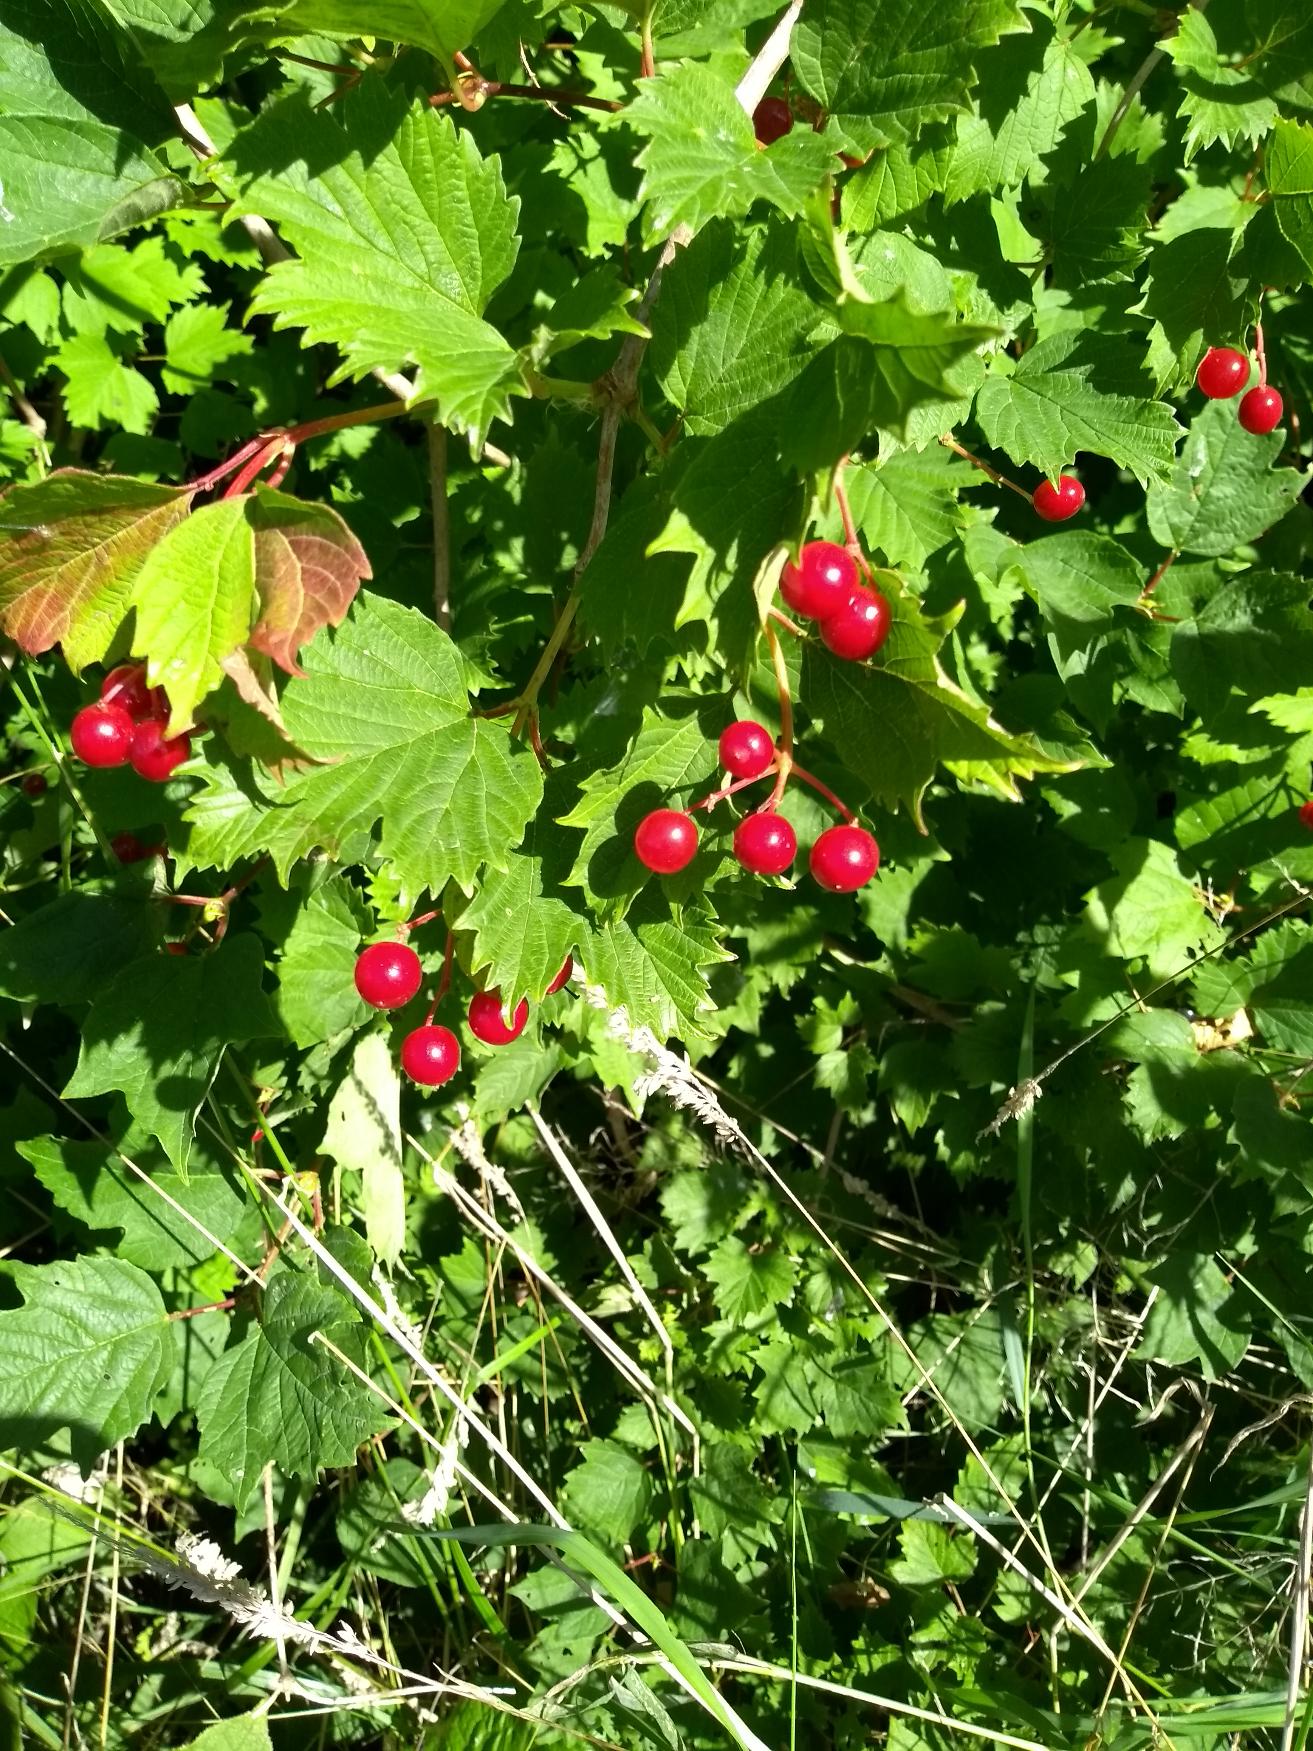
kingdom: Plantae
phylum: Tracheophyta
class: Magnoliopsida
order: Dipsacales
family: Viburnaceae
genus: Viburnum
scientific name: Viburnum opulus
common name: Kvalkved
